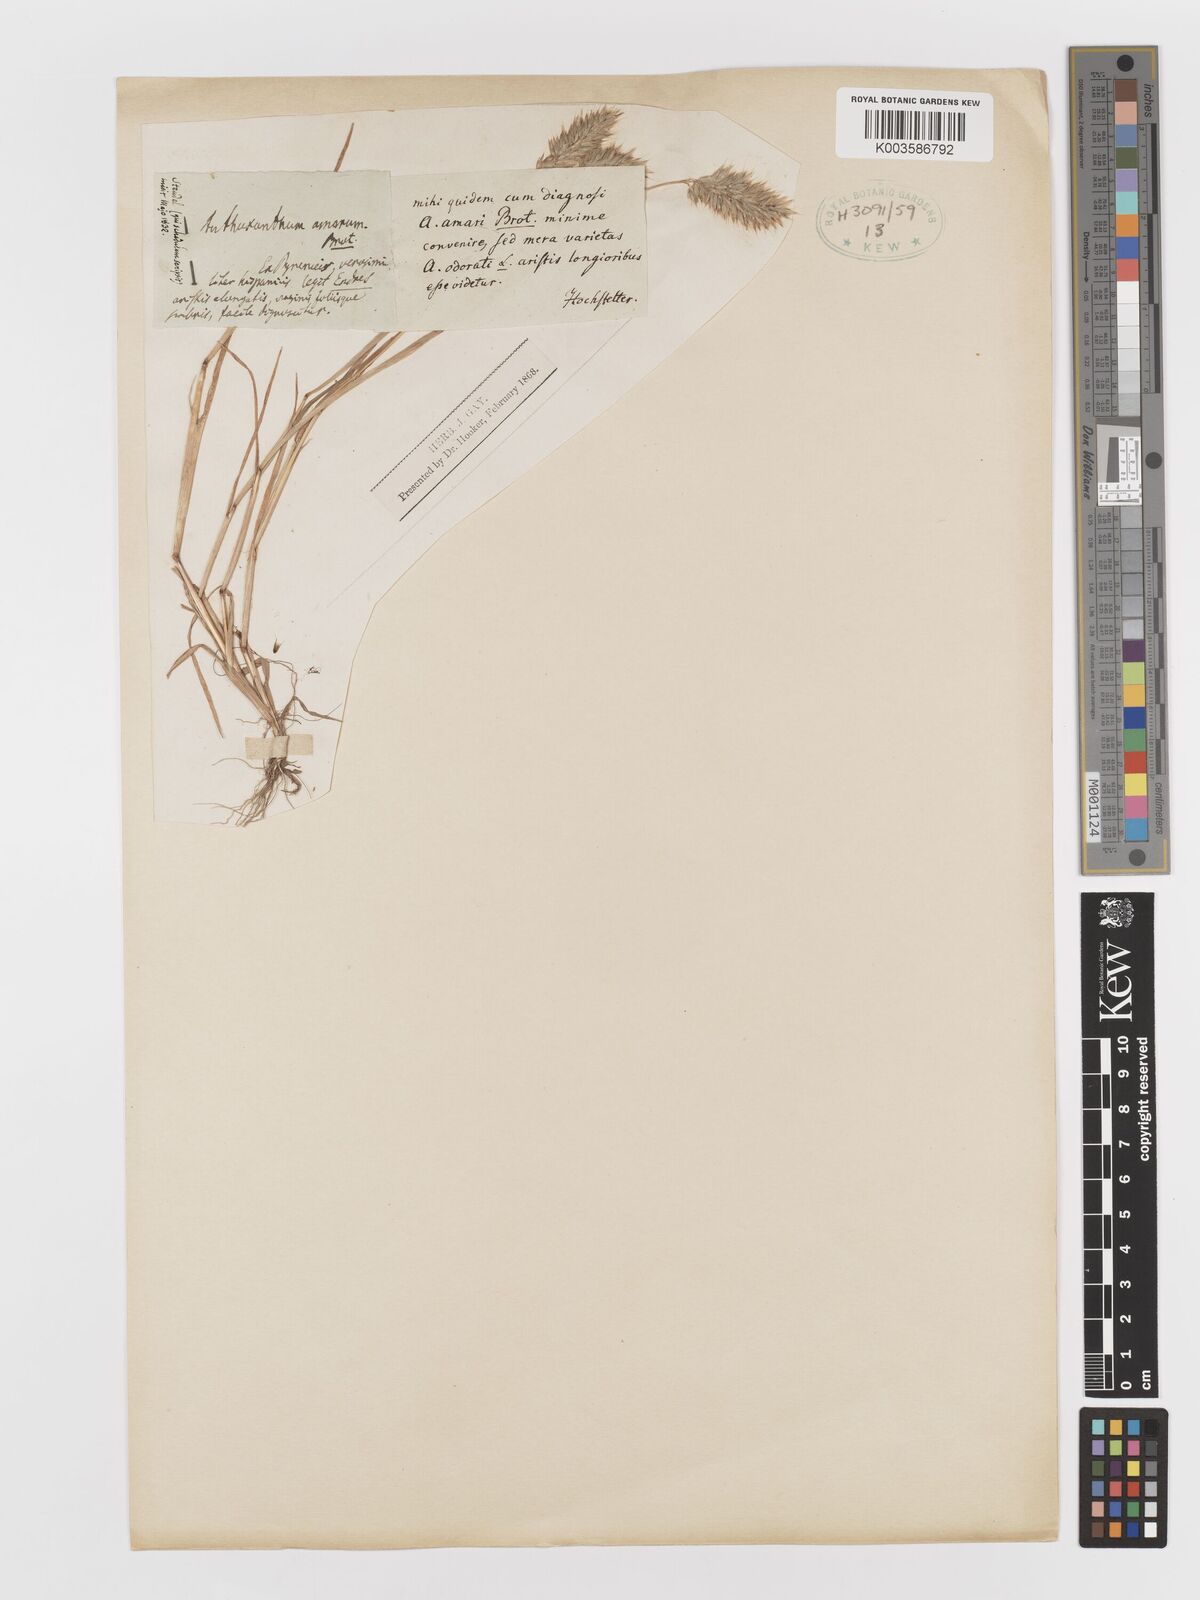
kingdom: Plantae
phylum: Tracheophyta
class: Liliopsida
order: Poales
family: Poaceae
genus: Anthoxanthum
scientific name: Anthoxanthum amarum
